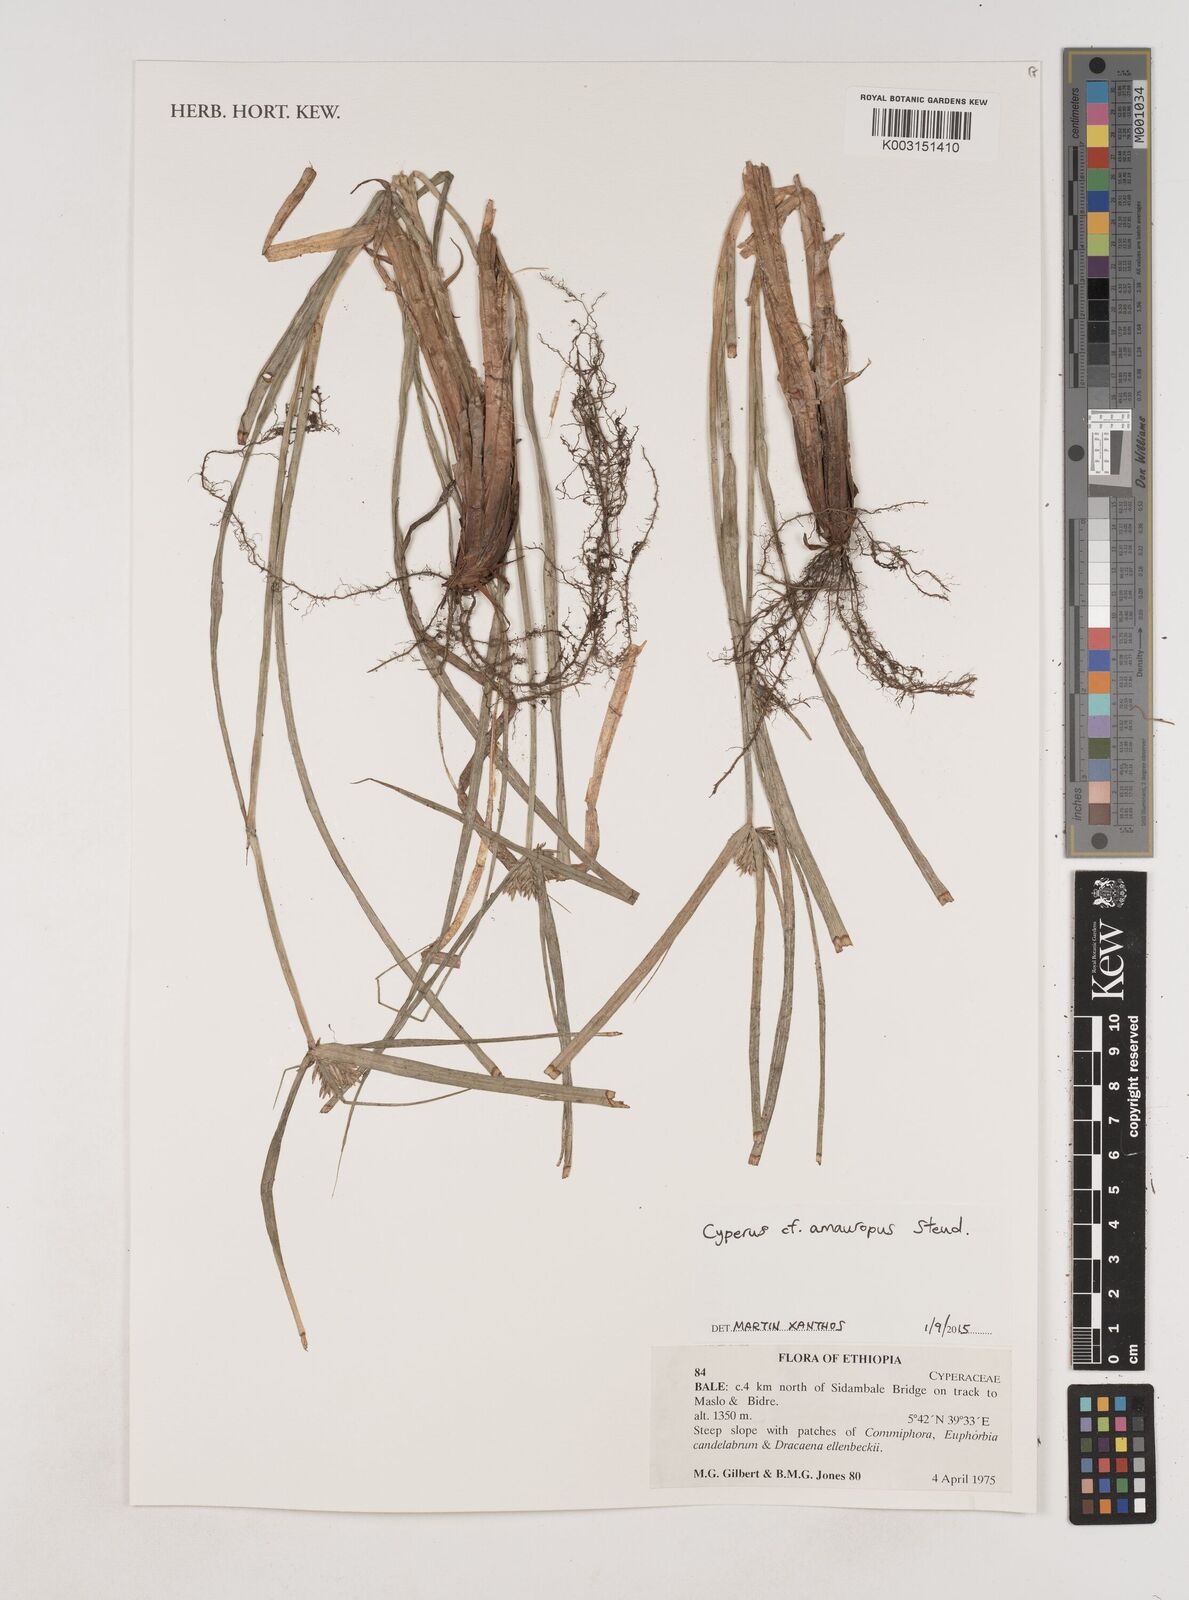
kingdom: Plantae
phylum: Tracheophyta
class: Liliopsida
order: Poales
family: Cyperaceae
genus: Cyperus
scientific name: Cyperus amauropus
